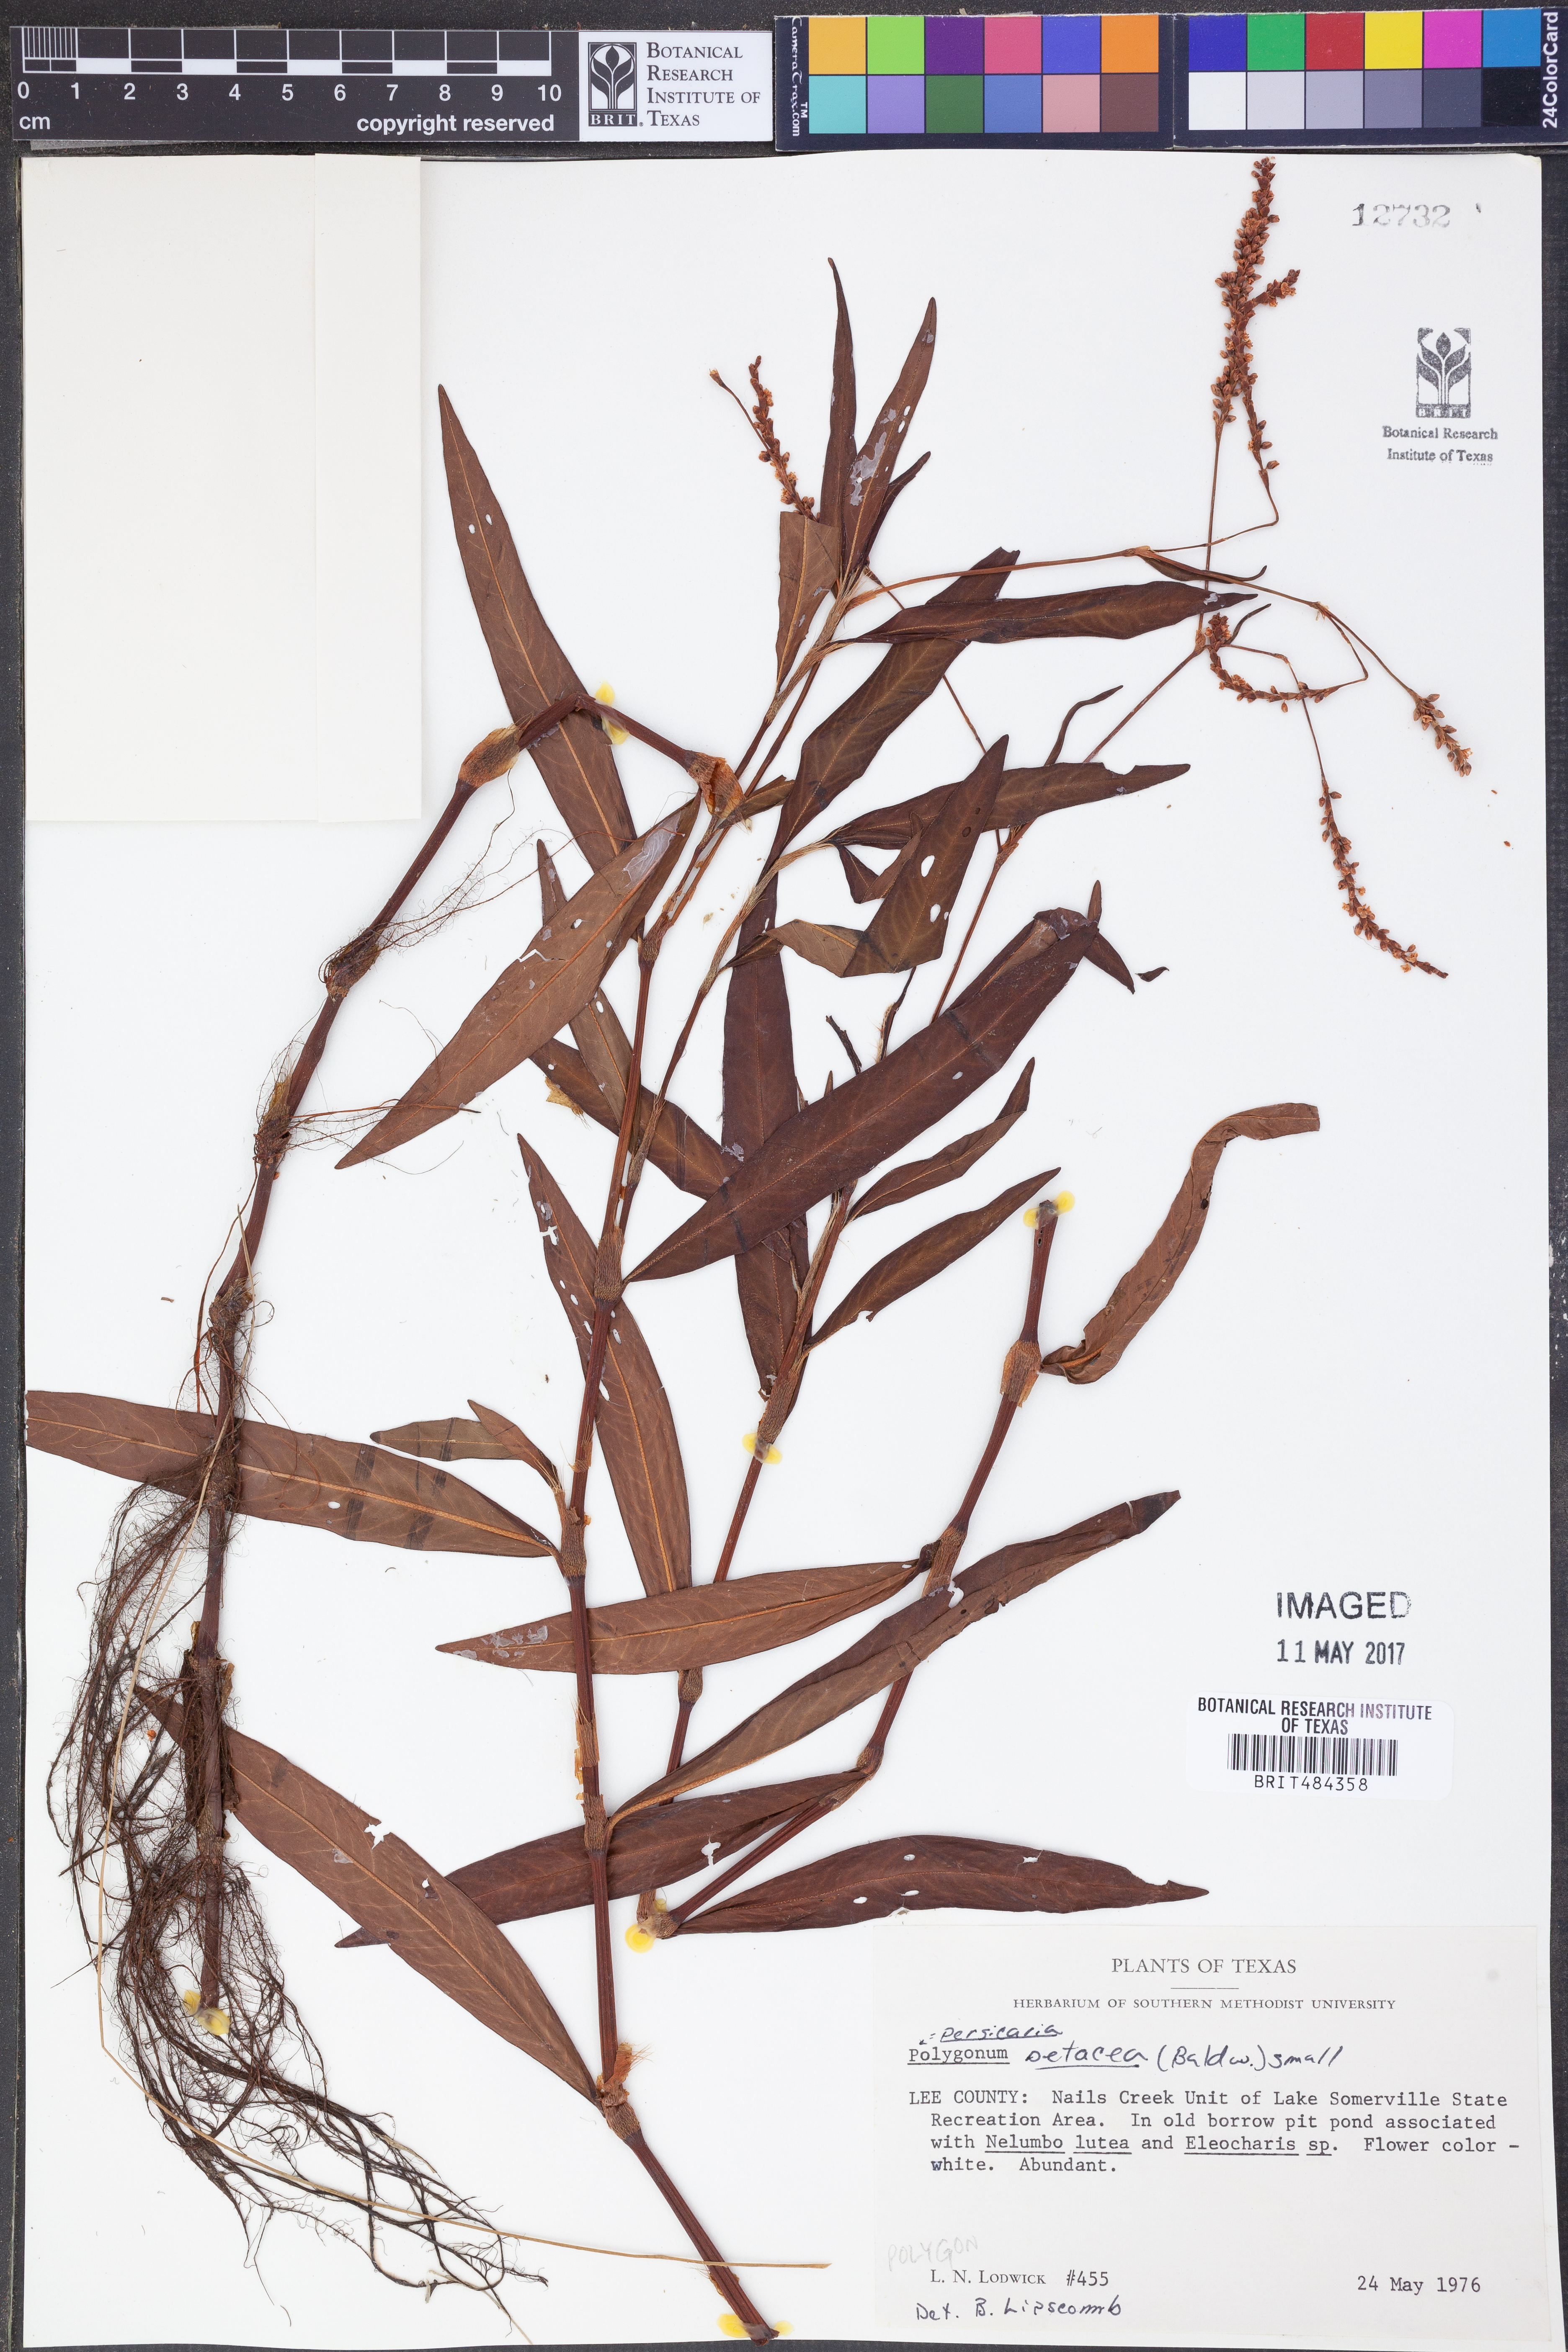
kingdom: Plantae
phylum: Tracheophyta
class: Magnoliopsida
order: Caryophyllales
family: Polygonaceae
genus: Persicaria
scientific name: Persicaria setacea
